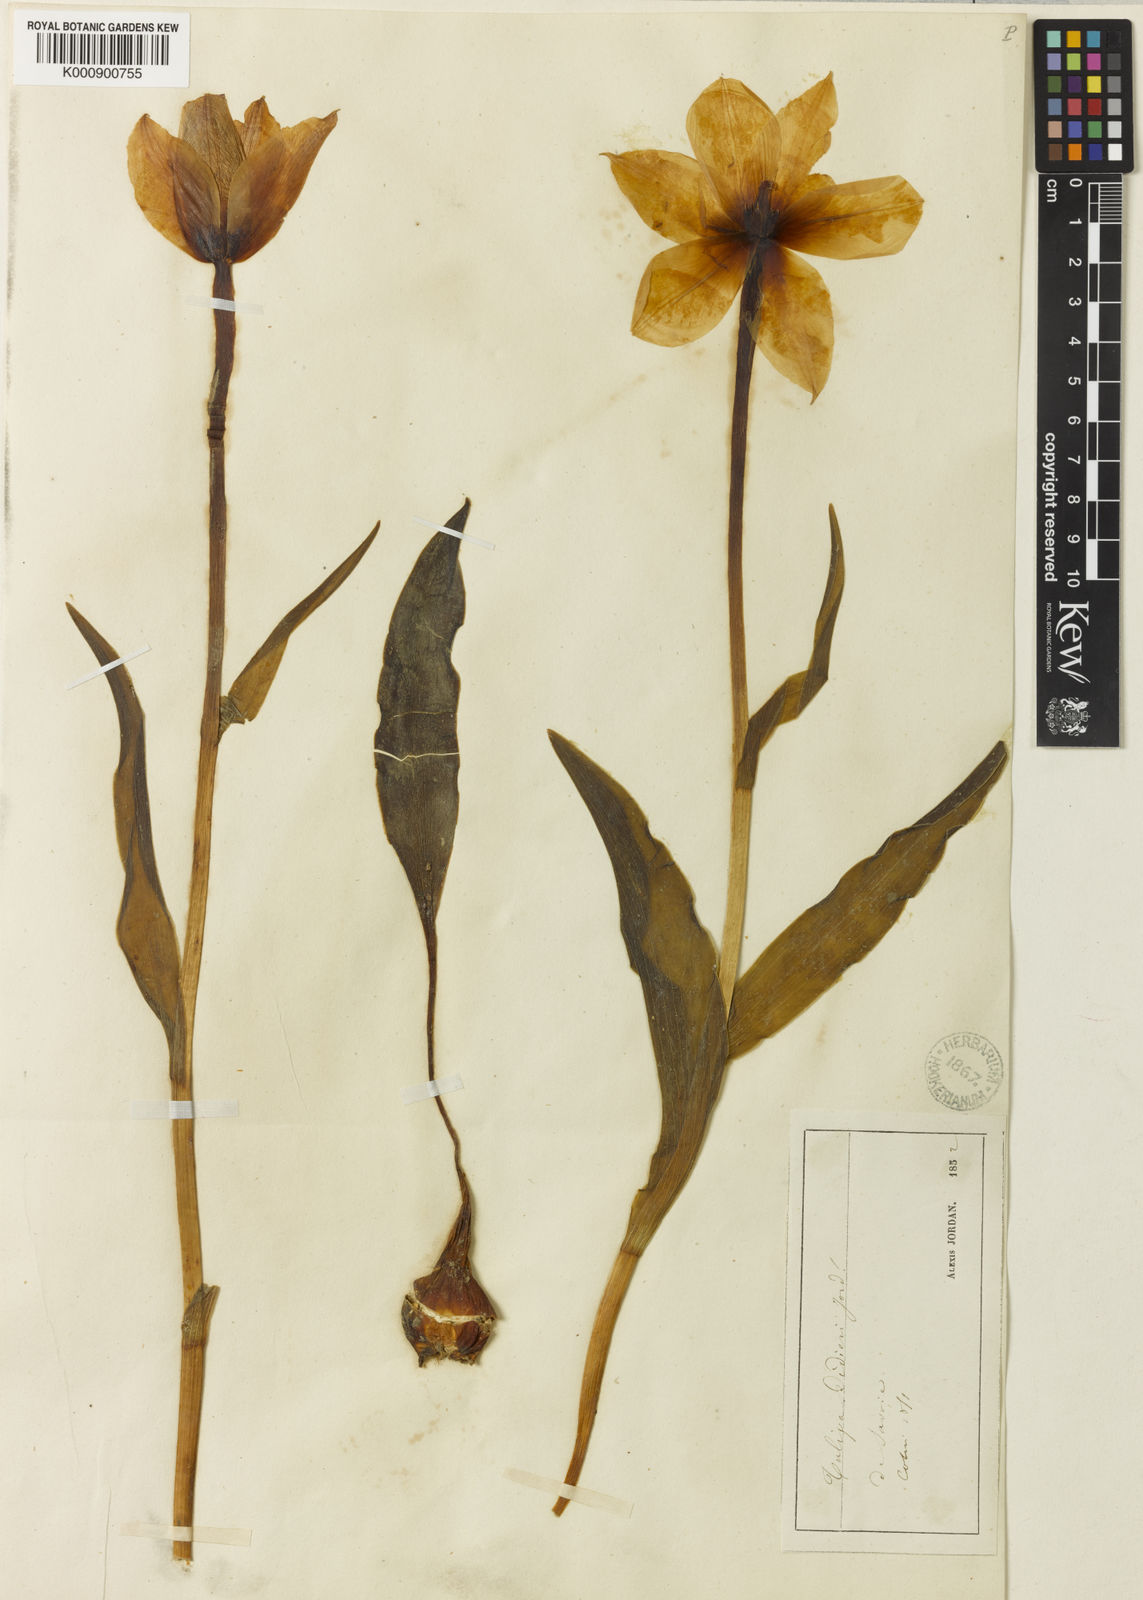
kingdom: Plantae
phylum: Tracheophyta
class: Liliopsida
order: Liliales
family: Liliaceae
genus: Tulipa
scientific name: Tulipa gesneriana
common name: Garden tulip
